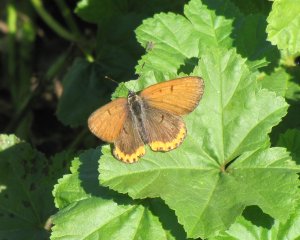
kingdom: Animalia
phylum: Arthropoda
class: Insecta
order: Lepidoptera
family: Sesiidae
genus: Sesia
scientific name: Sesia Lycaena hyllus
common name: Bronze Copper
